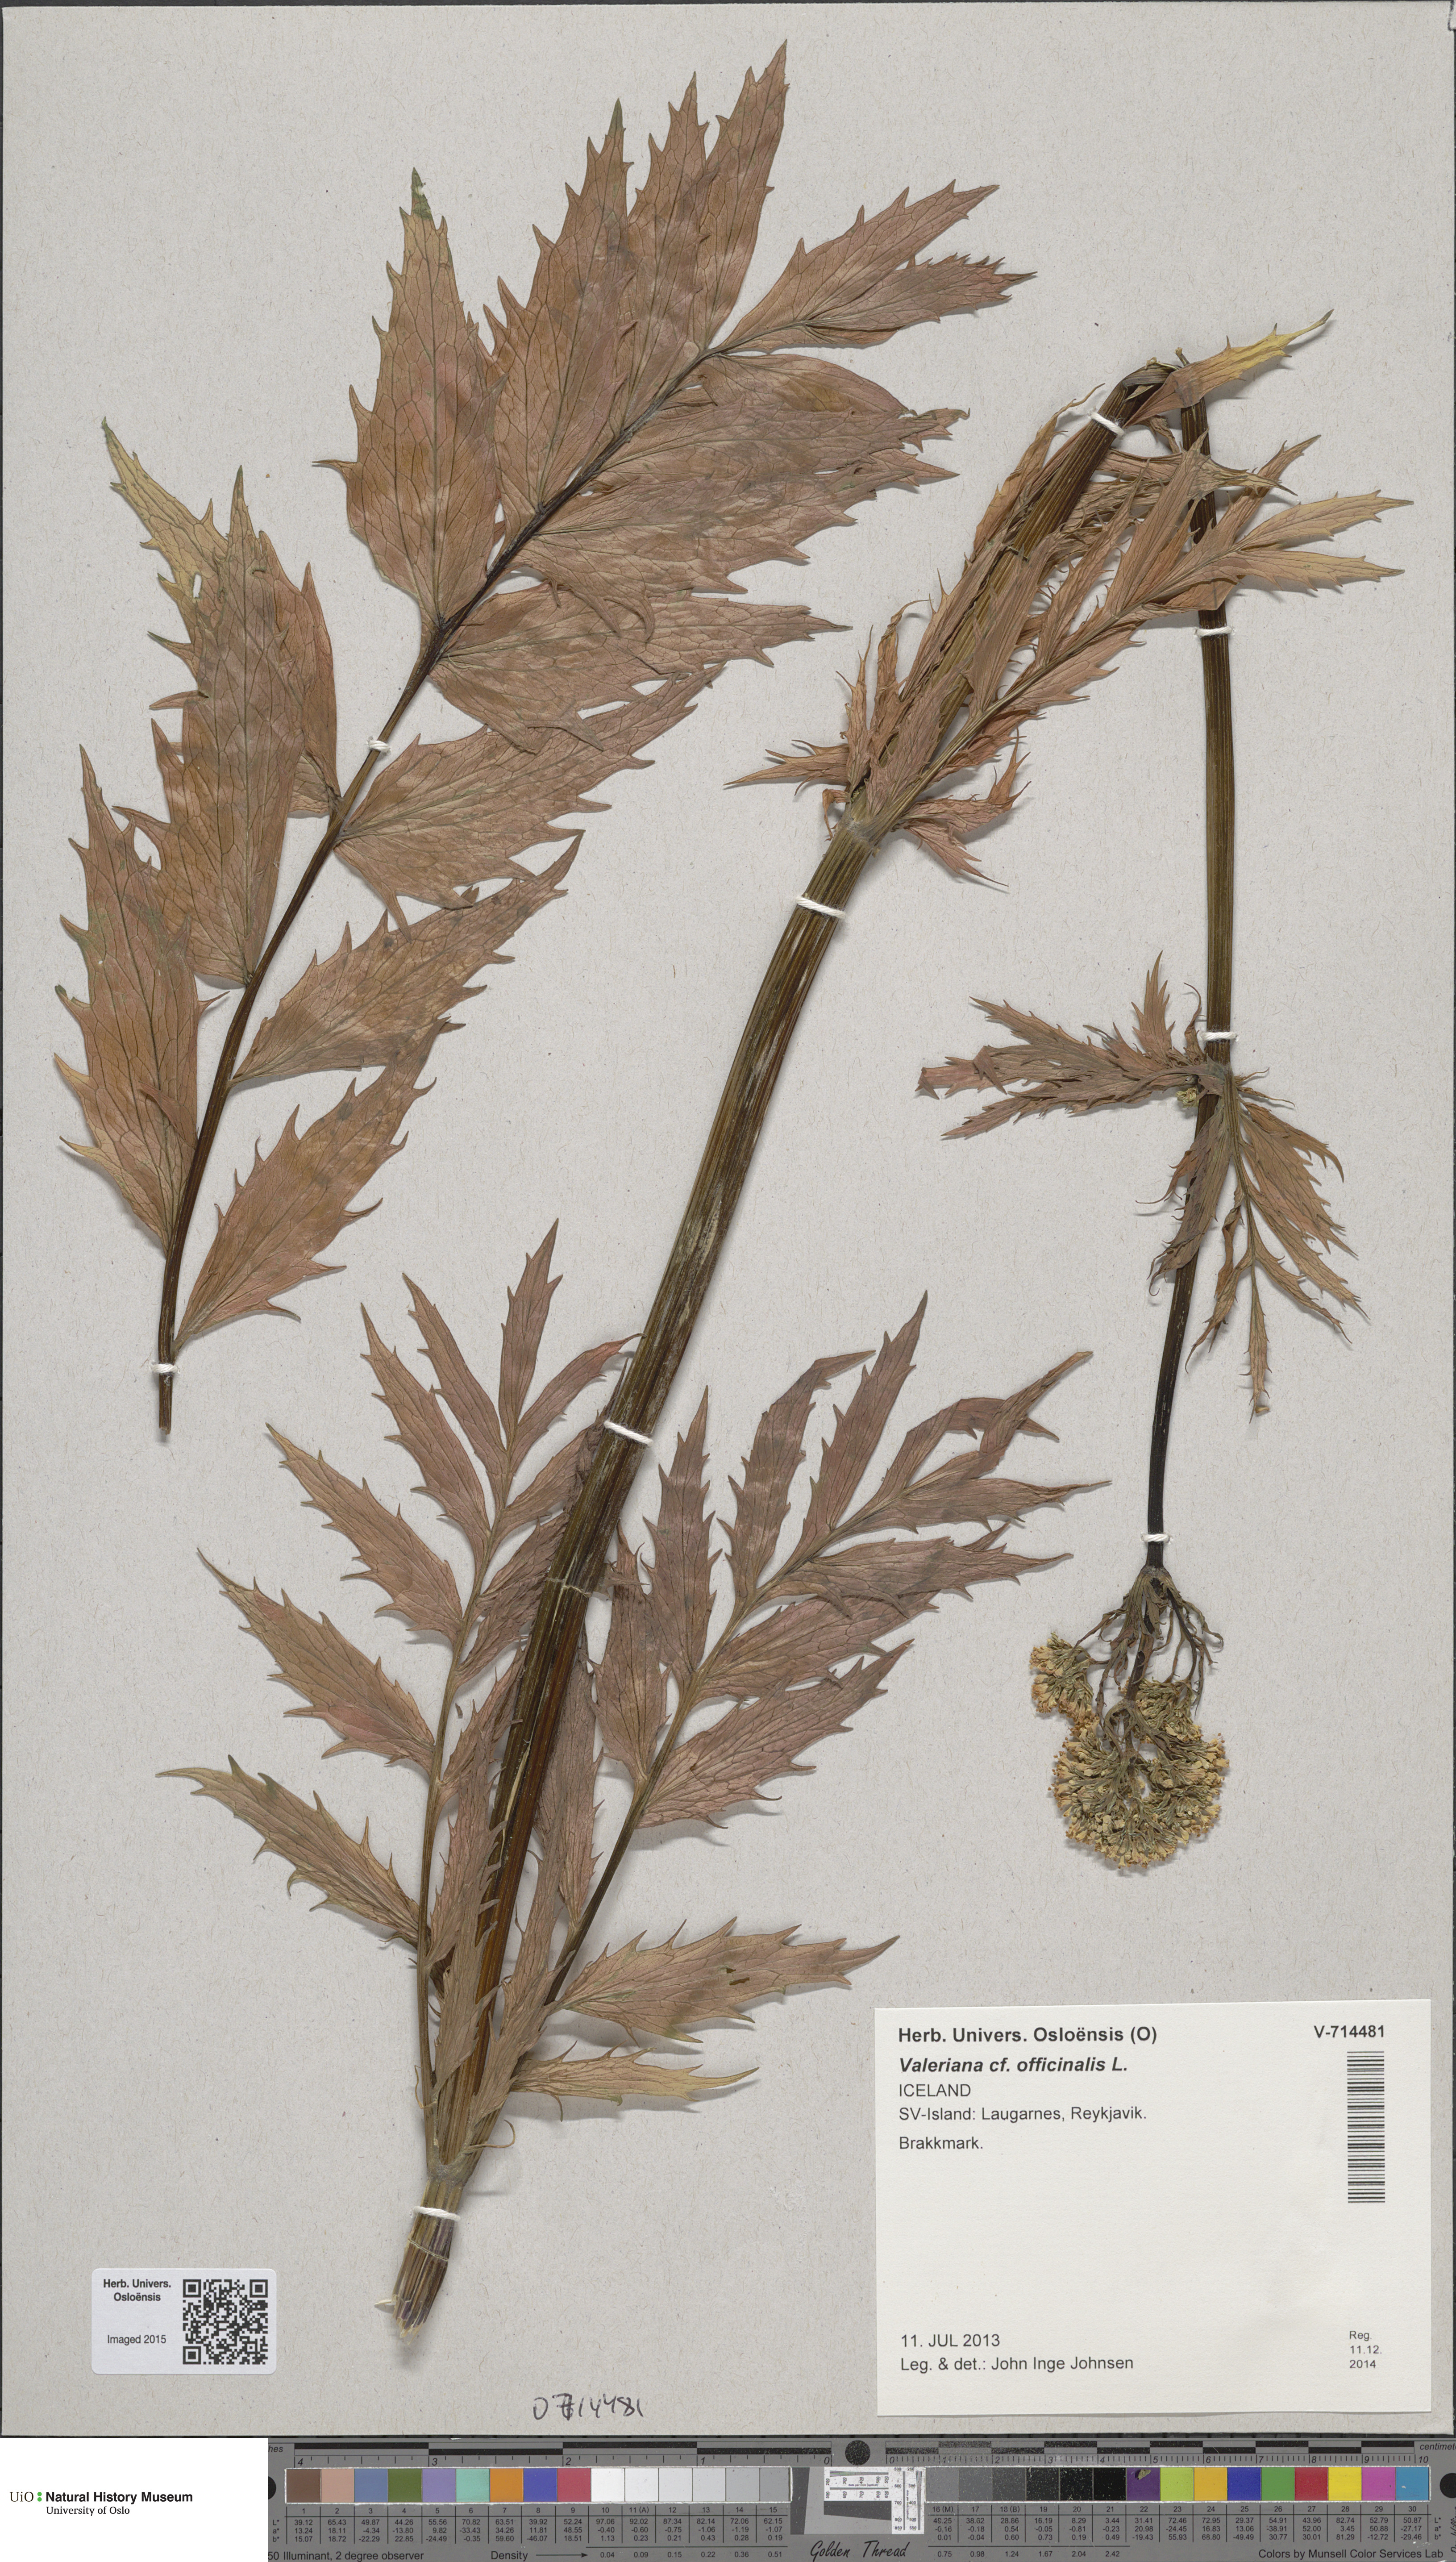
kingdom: Plantae
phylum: Tracheophyta
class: Magnoliopsida
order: Dipsacales
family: Caprifoliaceae
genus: Valeriana
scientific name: Valeriana excelsa
